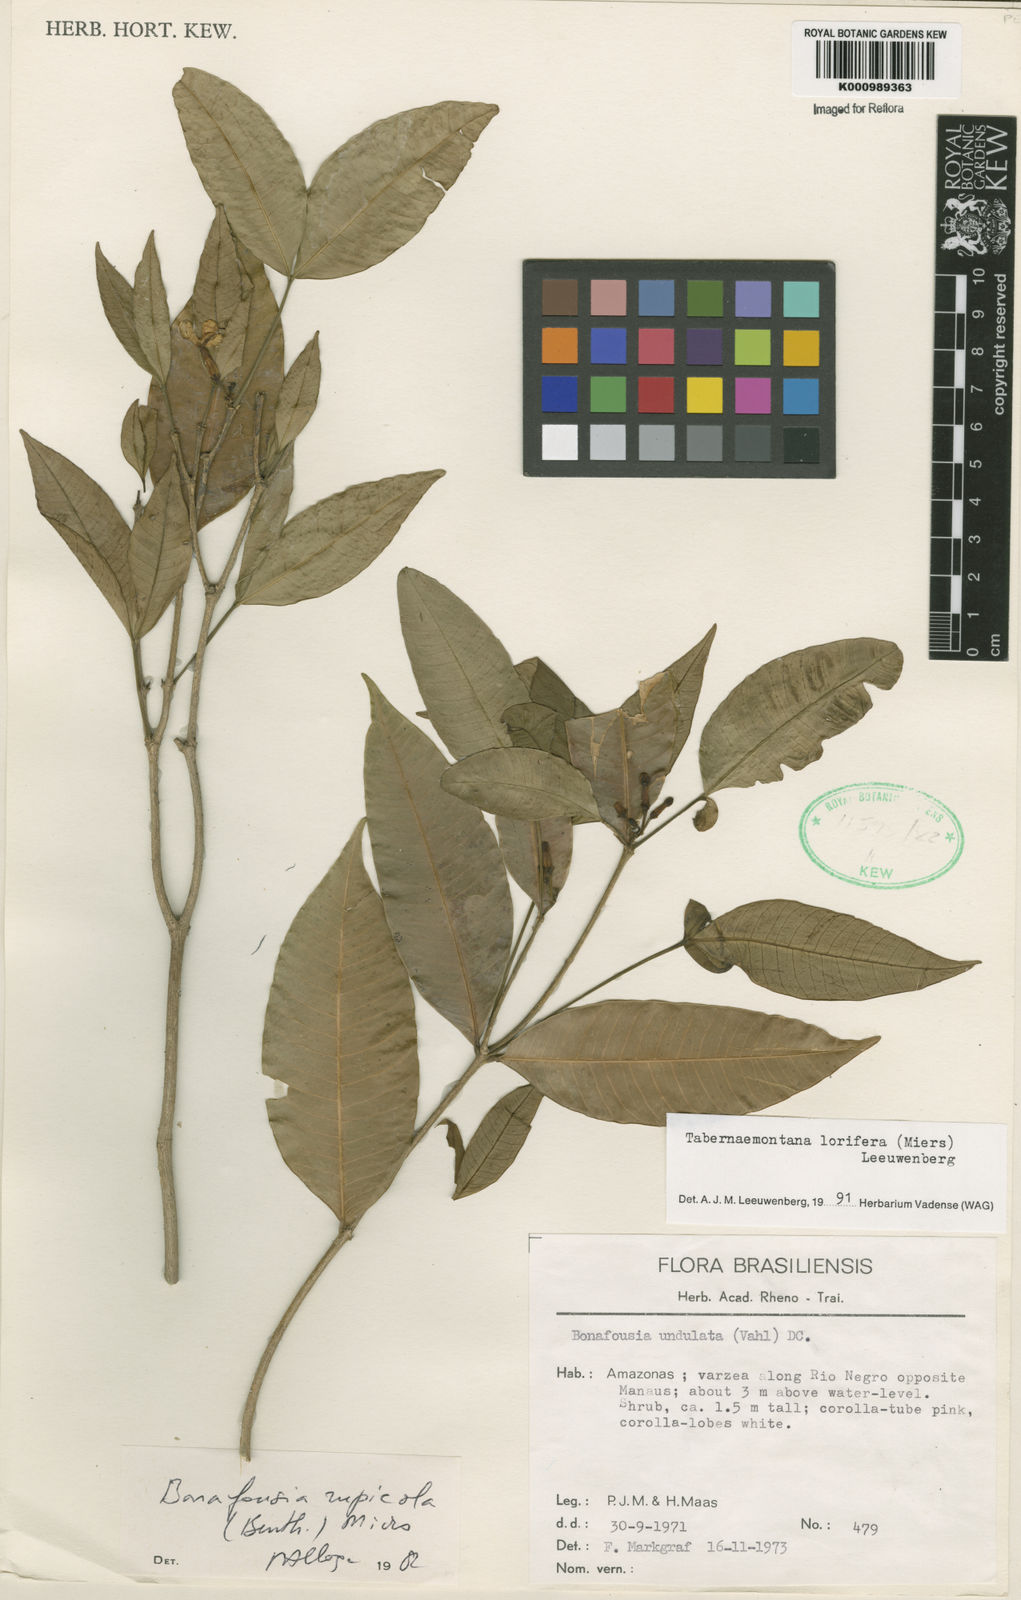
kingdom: Plantae
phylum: Tracheophyta
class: Magnoliopsida
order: Gentianales
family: Apocynaceae
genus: Tabernaemontana
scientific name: Tabernaemontana lorifera
